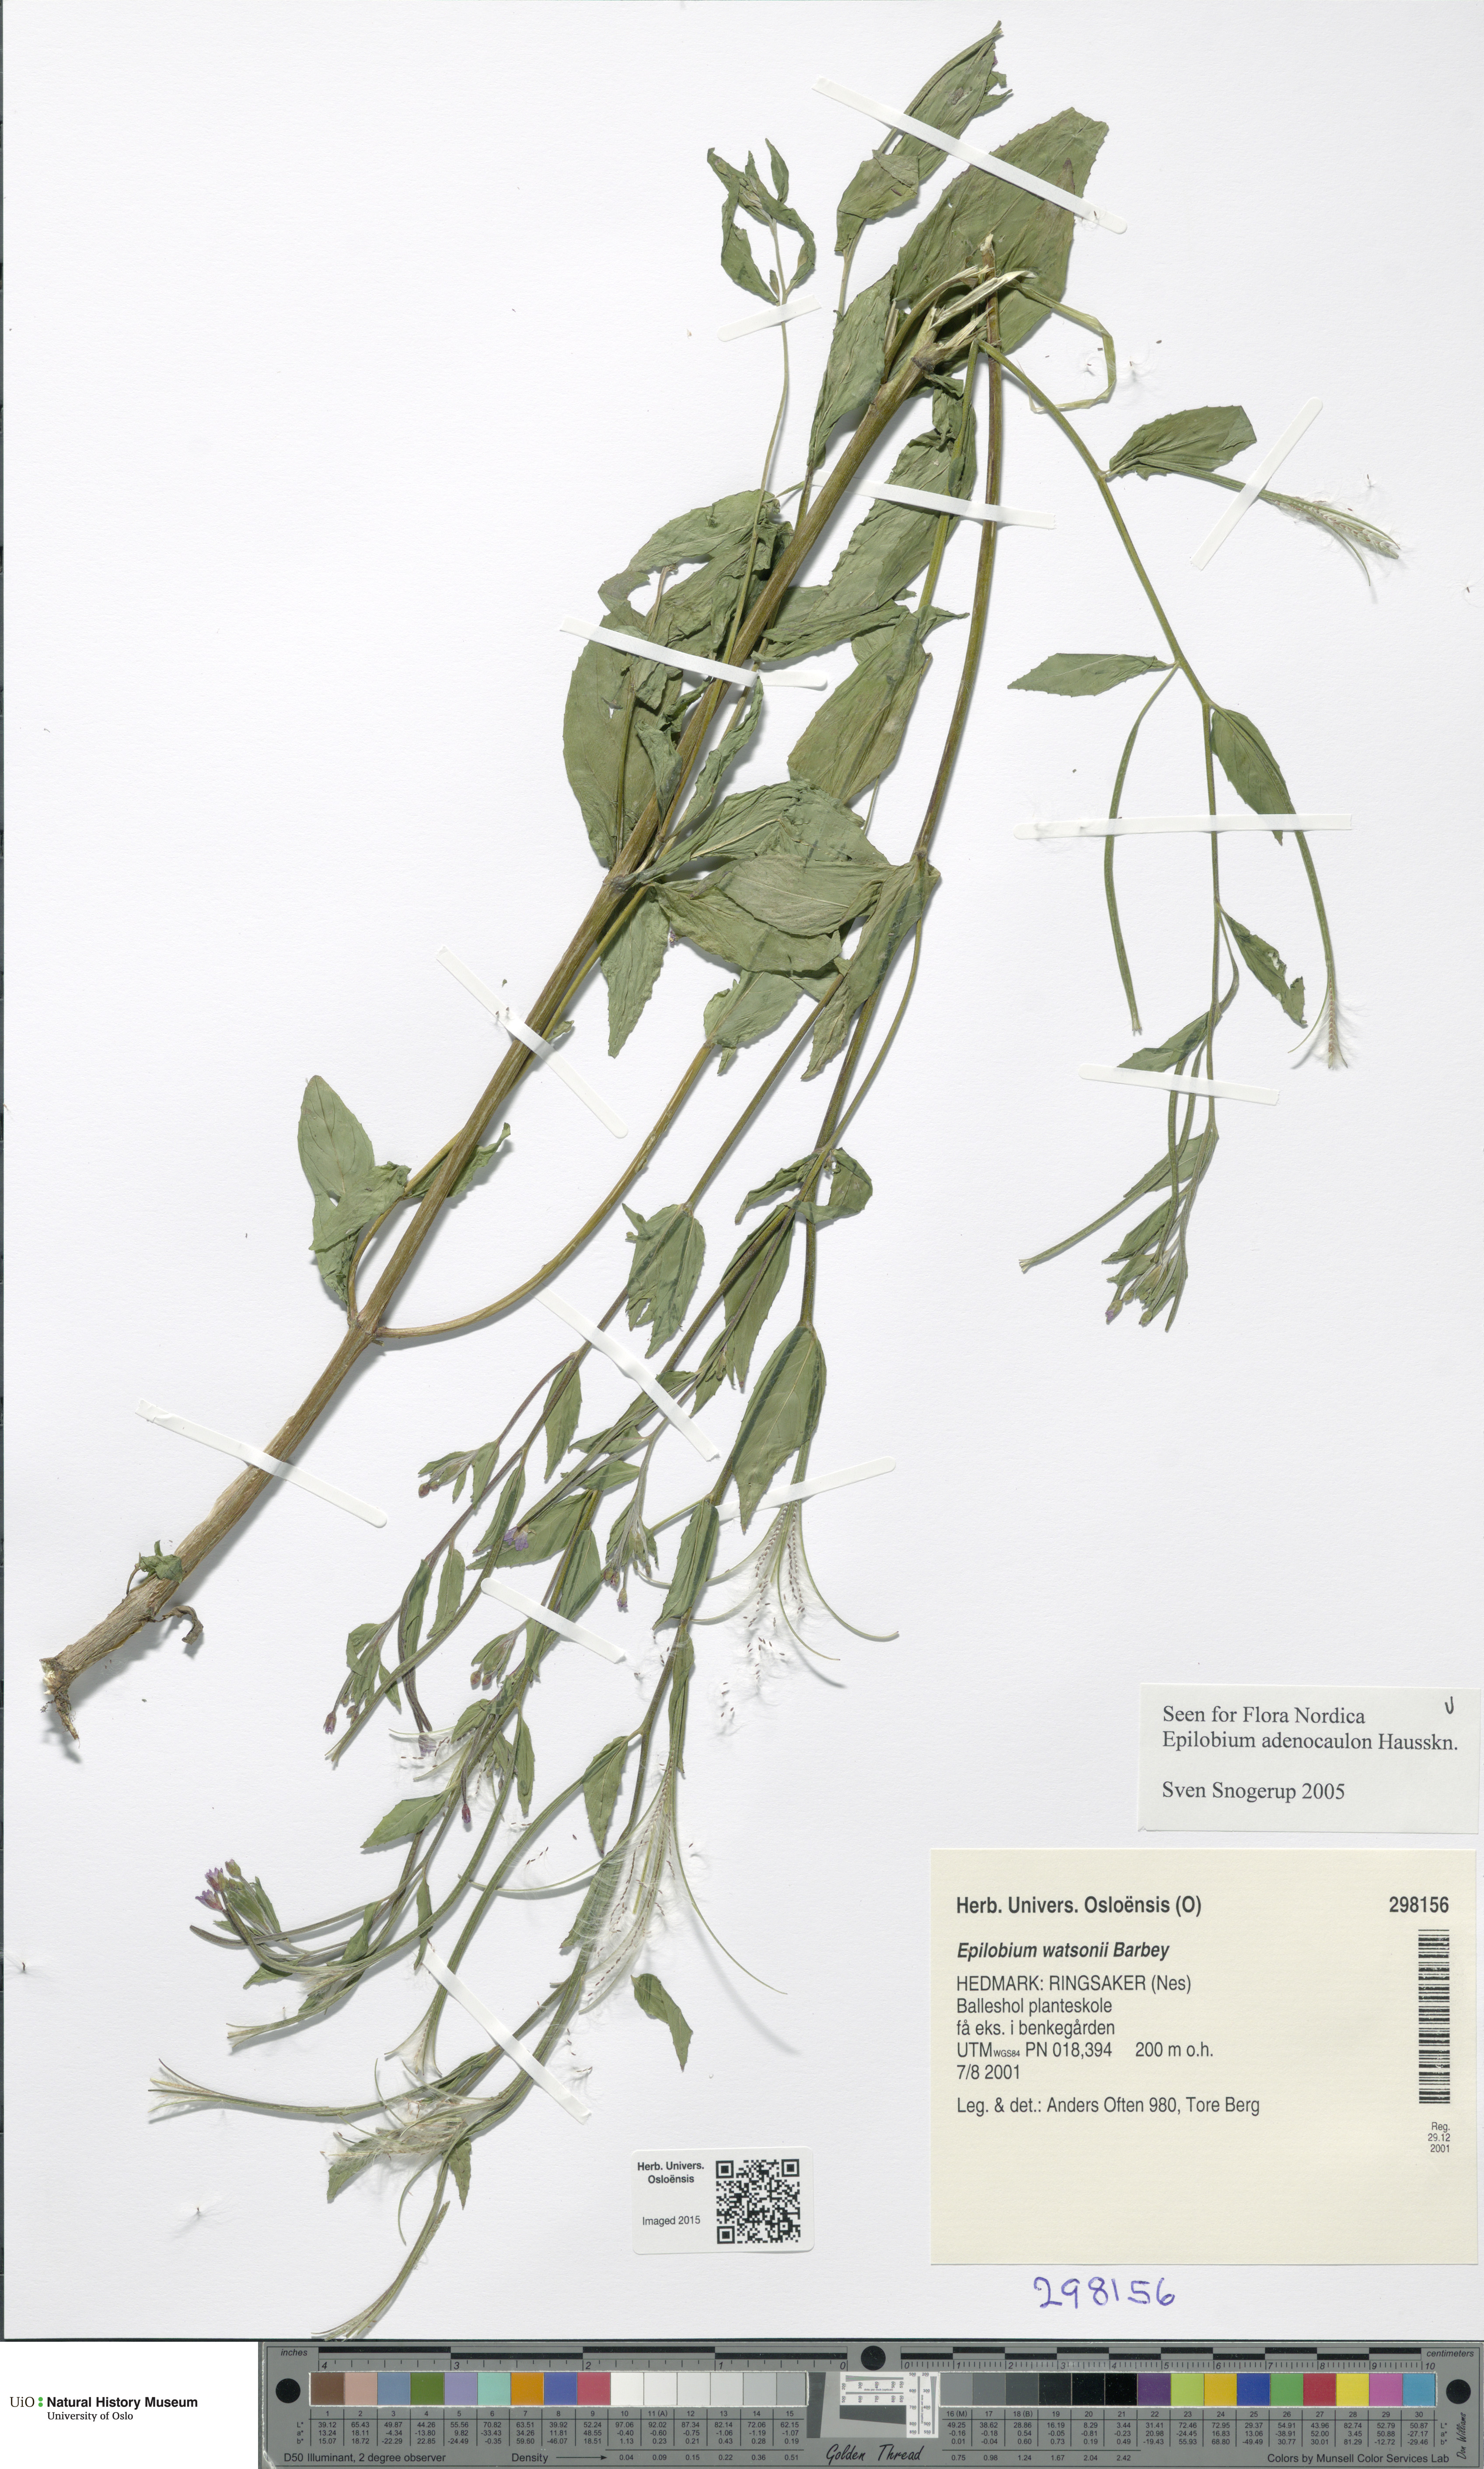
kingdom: Plantae
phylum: Tracheophyta
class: Magnoliopsida
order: Myrtales
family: Onagraceae
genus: Epilobium
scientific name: Epilobium ciliatum
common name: American willowherb
